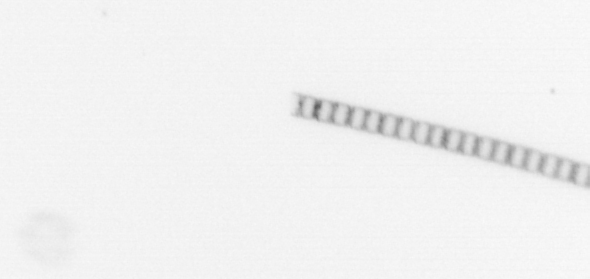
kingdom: Chromista
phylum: Ochrophyta
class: Bacillariophyceae
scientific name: Bacillariophyceae
